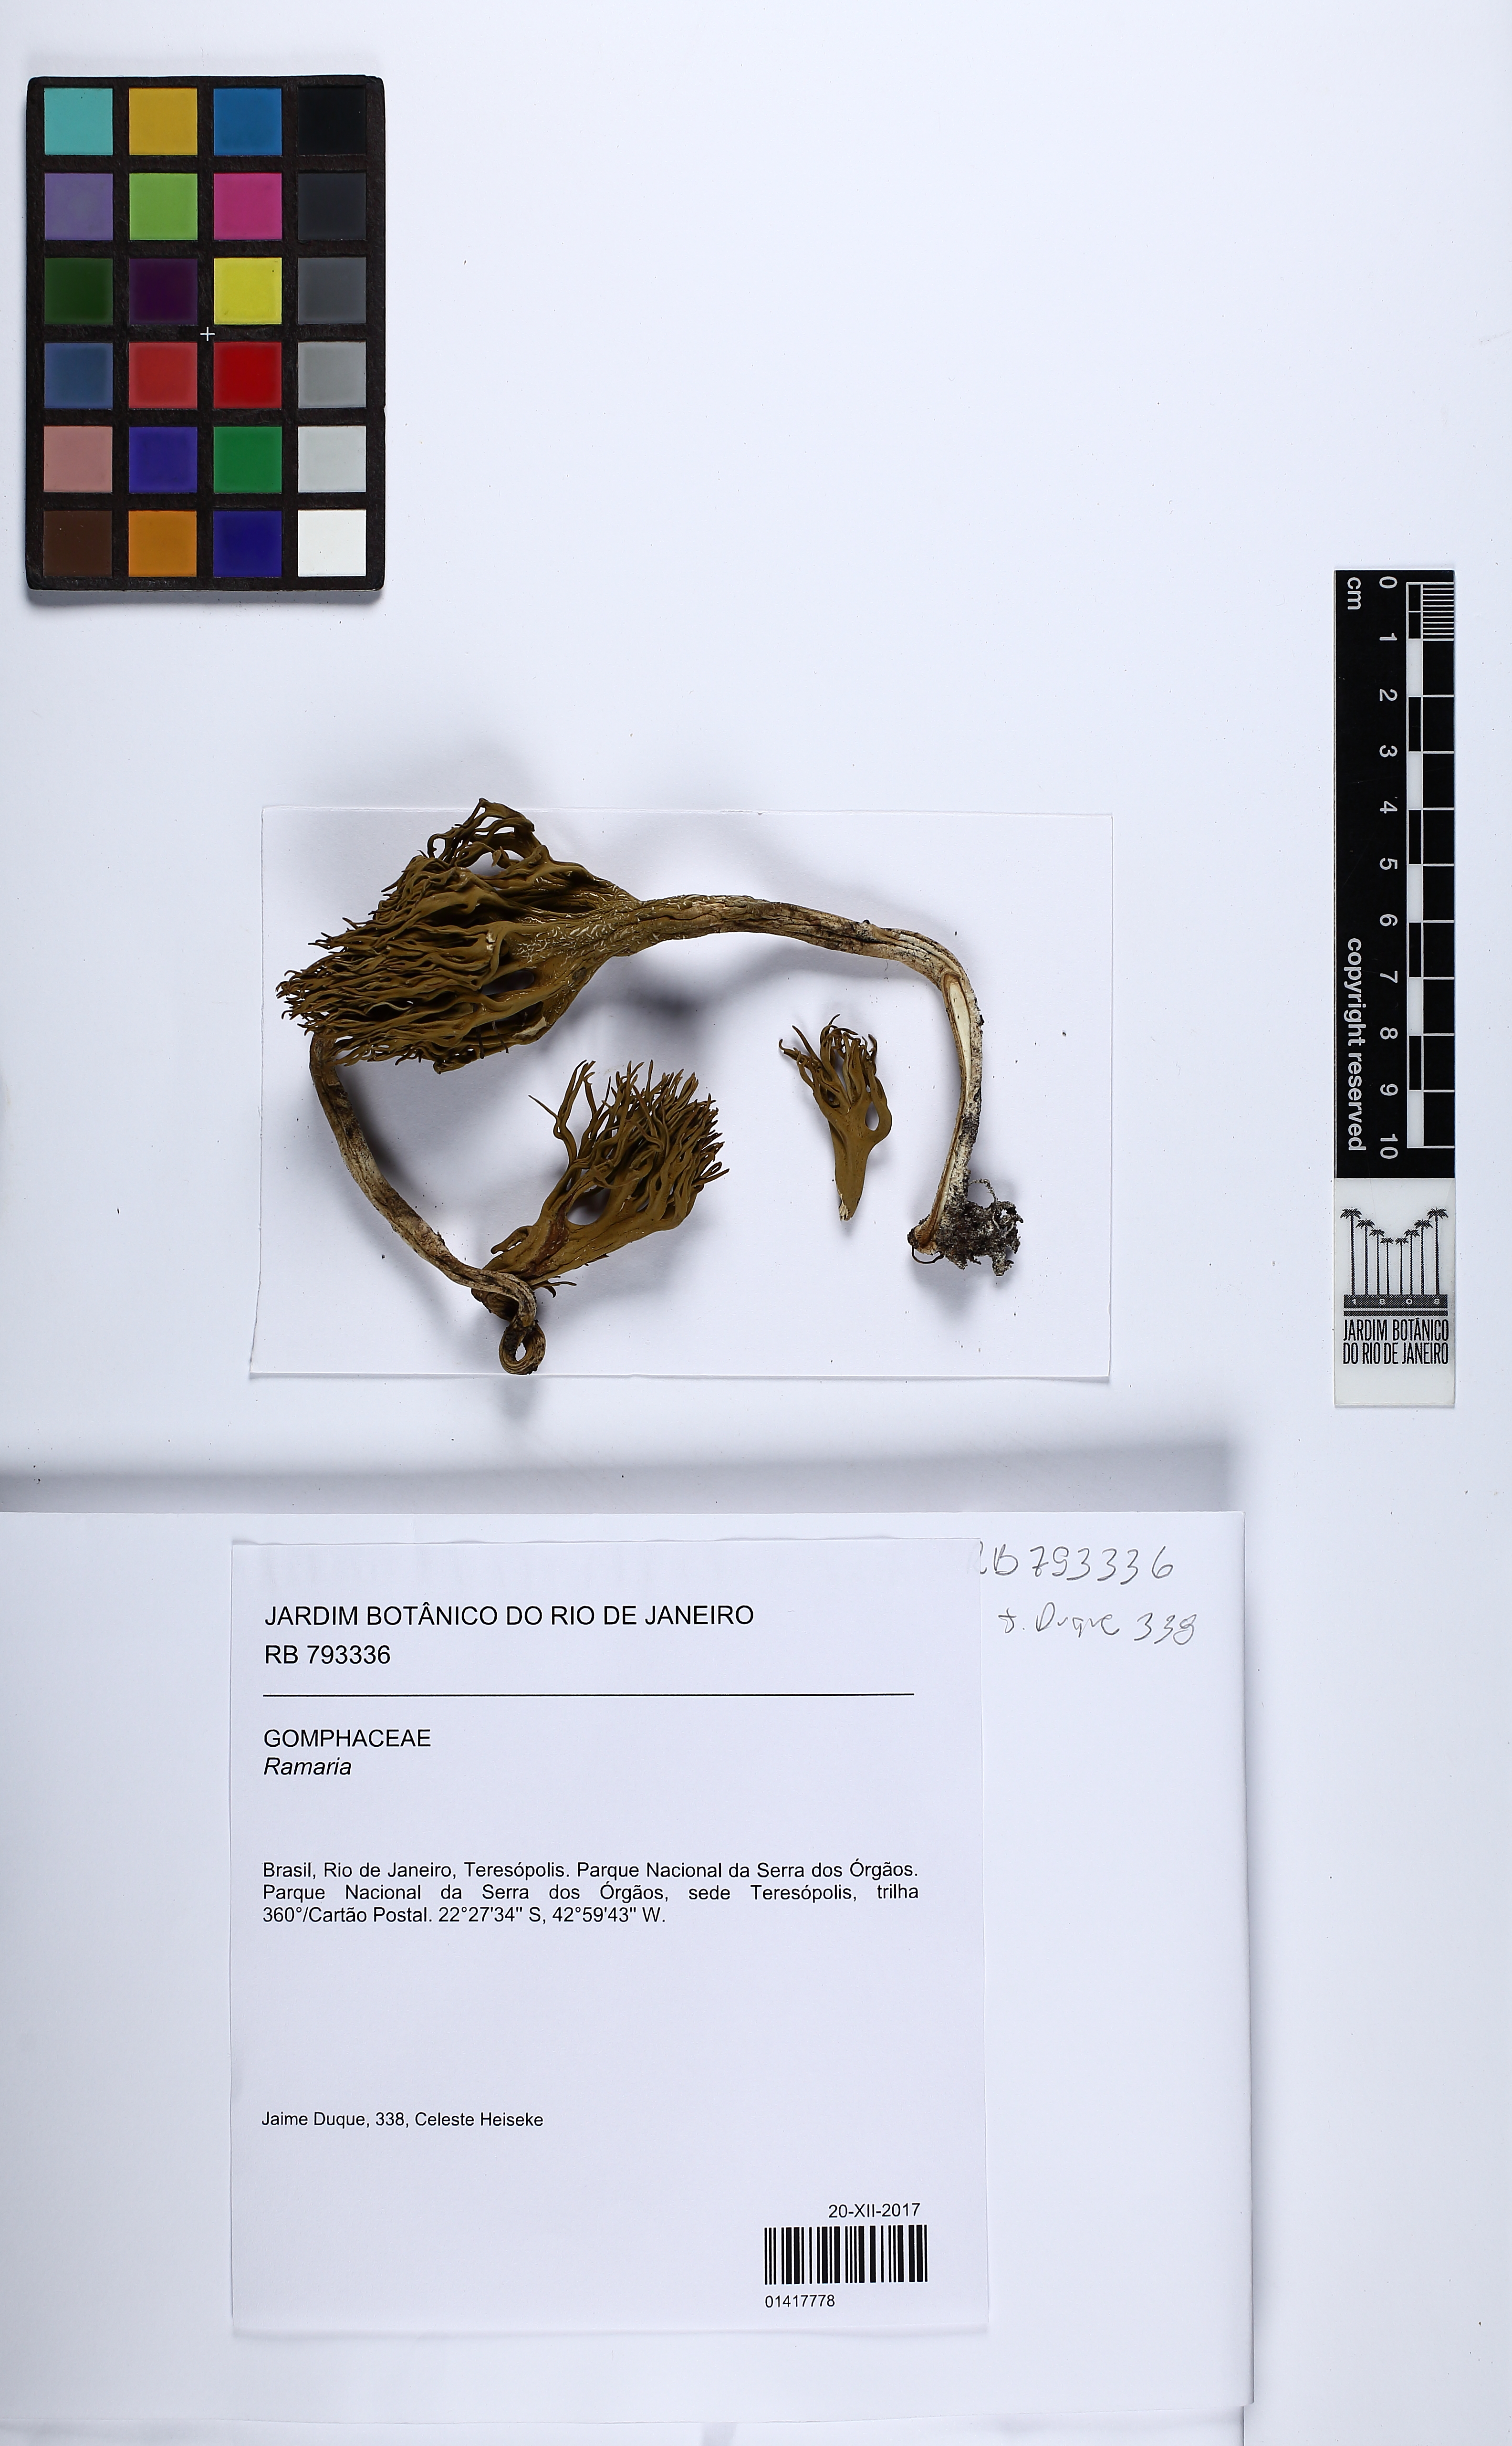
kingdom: Fungi
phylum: Basidiomycota
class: Agaricomycetes
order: Gomphales
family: Gomphaceae
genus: Ramaria
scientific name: Ramaria
